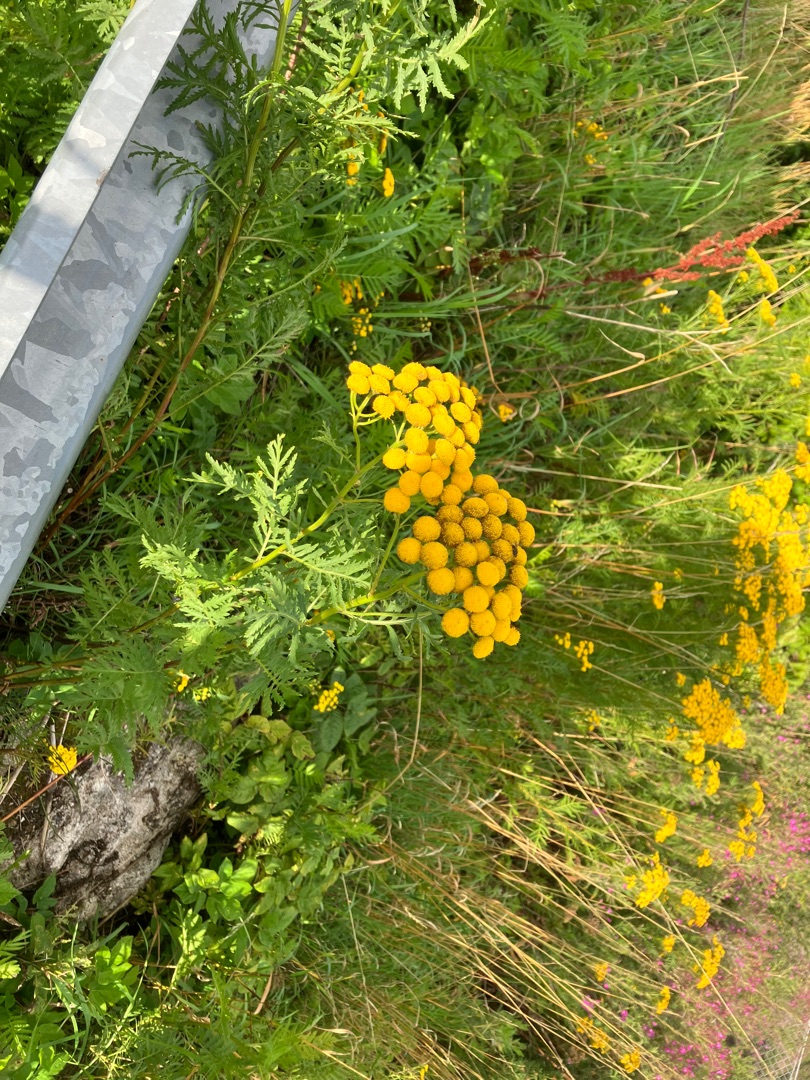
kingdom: Plantae
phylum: Tracheophyta
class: Magnoliopsida
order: Asterales
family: Asteraceae
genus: Tanacetum
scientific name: Tanacetum vulgare
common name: Rejnfan
